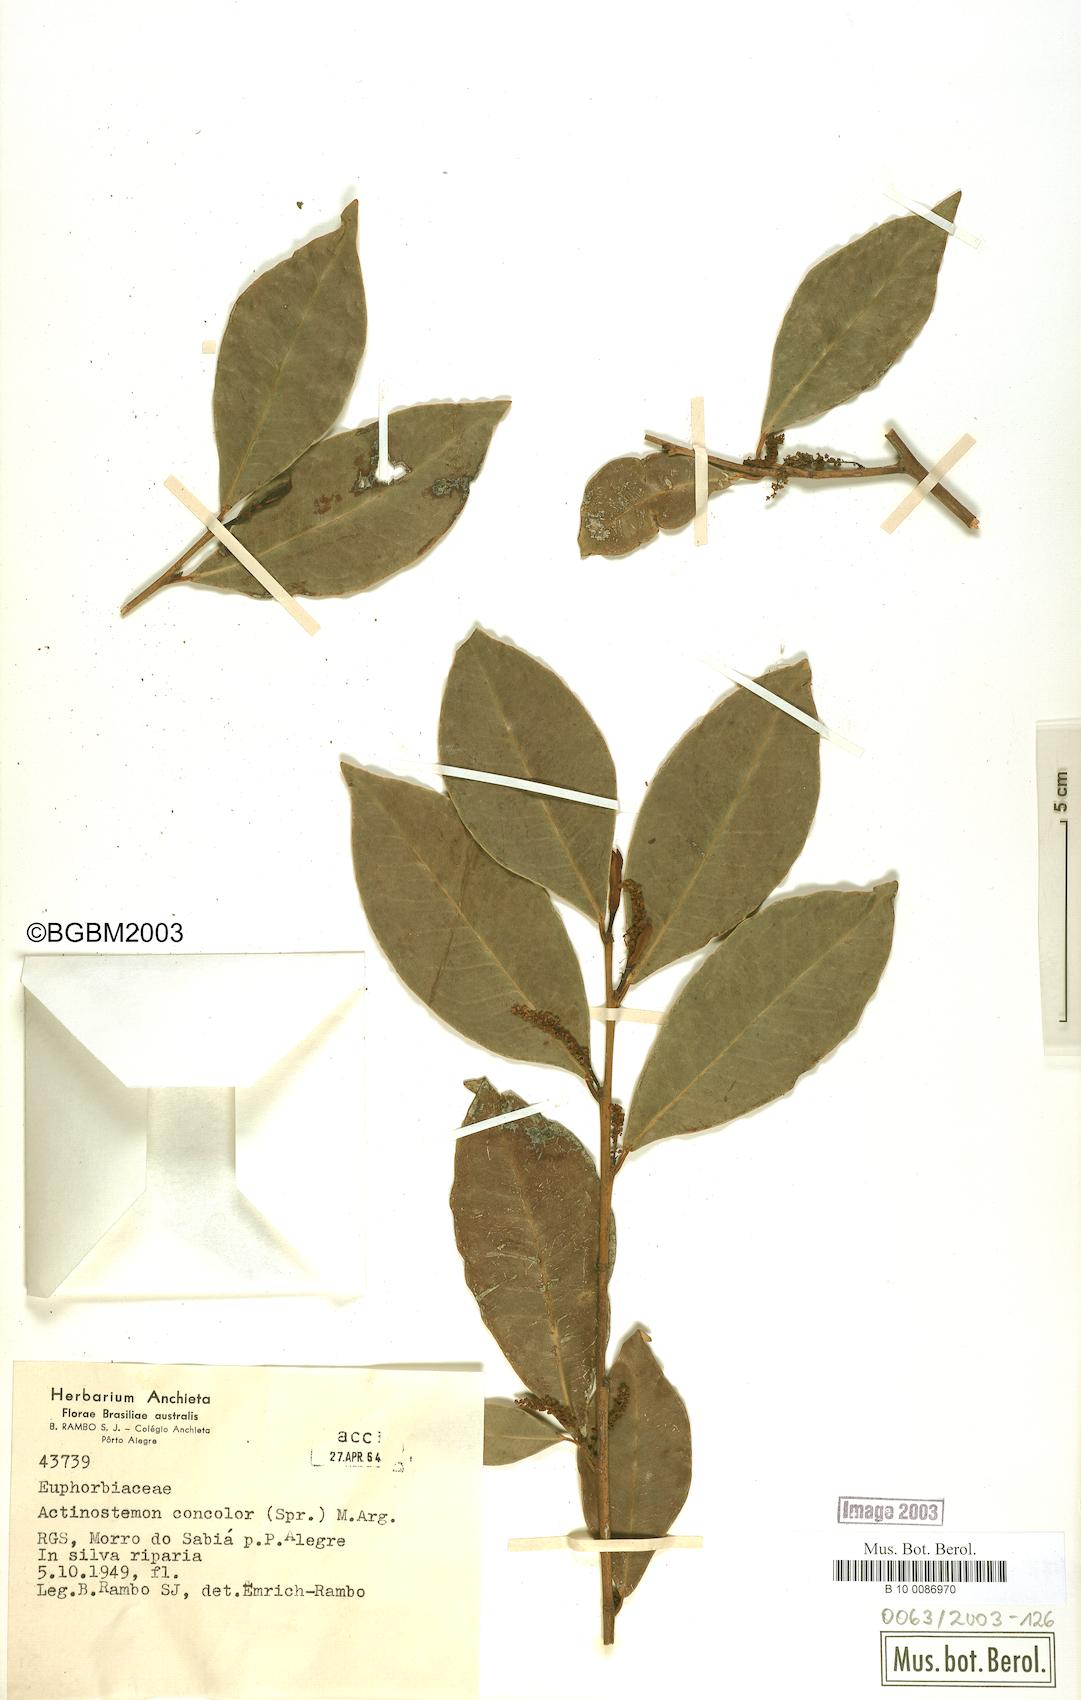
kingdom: Plantae
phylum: Tracheophyta
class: Magnoliopsida
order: Malpighiales
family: Euphorbiaceae
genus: Actinostemon
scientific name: Actinostemon concolor
